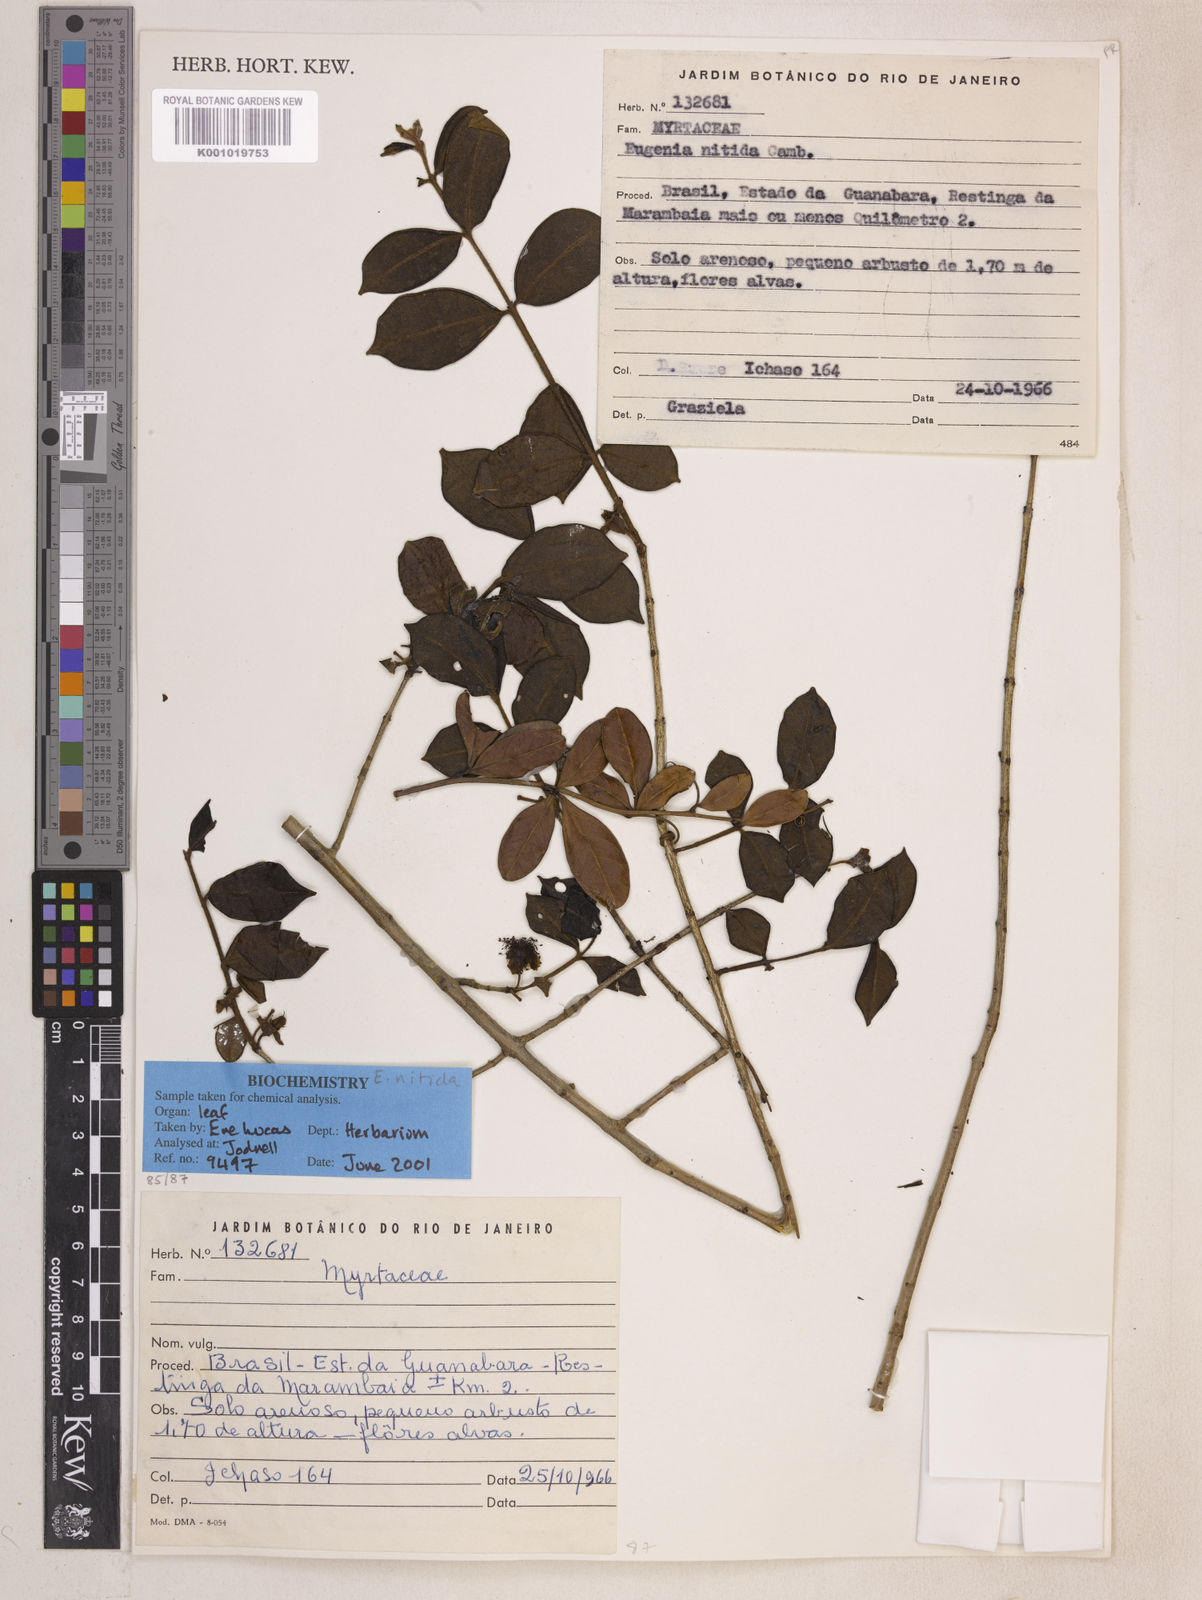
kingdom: Plantae
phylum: Tracheophyta
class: Magnoliopsida
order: Myrtales
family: Myrtaceae
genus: Eugenia
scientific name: Eugenia selloi
